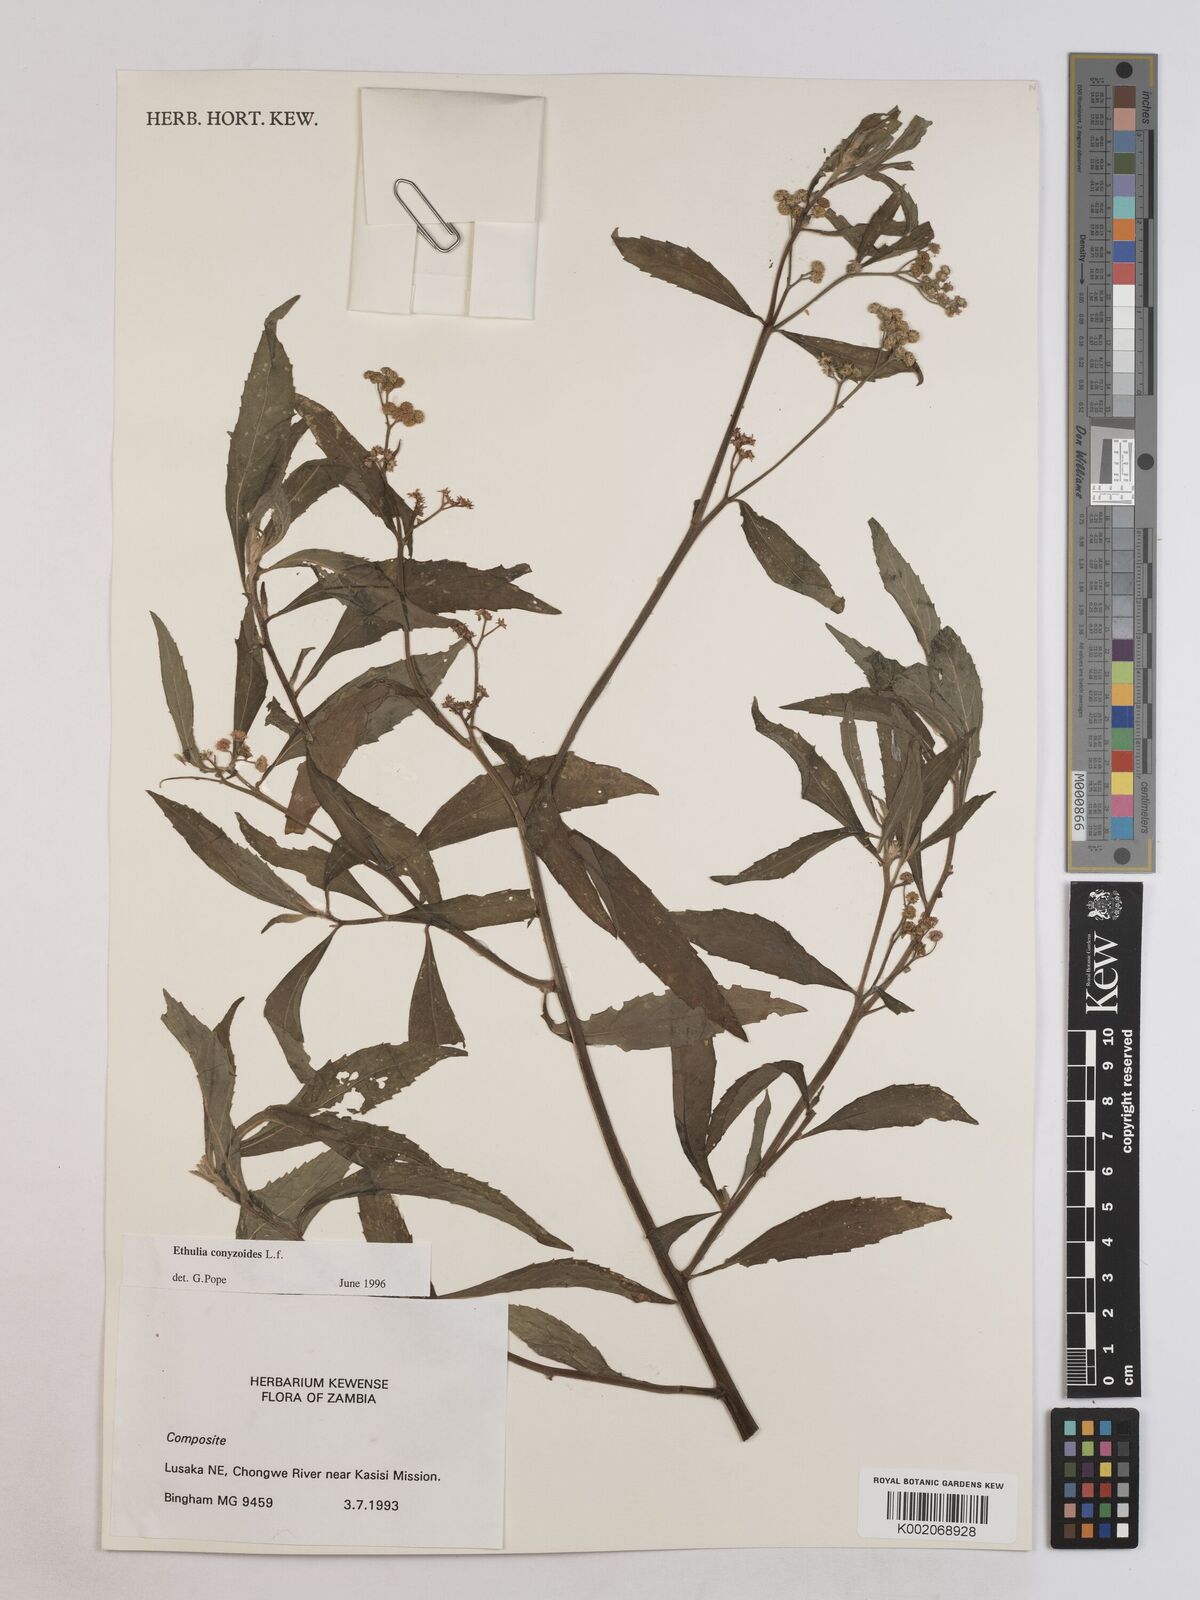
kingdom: Plantae
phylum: Tracheophyta
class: Magnoliopsida
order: Asterales
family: Asteraceae
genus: Ethulia
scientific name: Ethulia conyzoides
